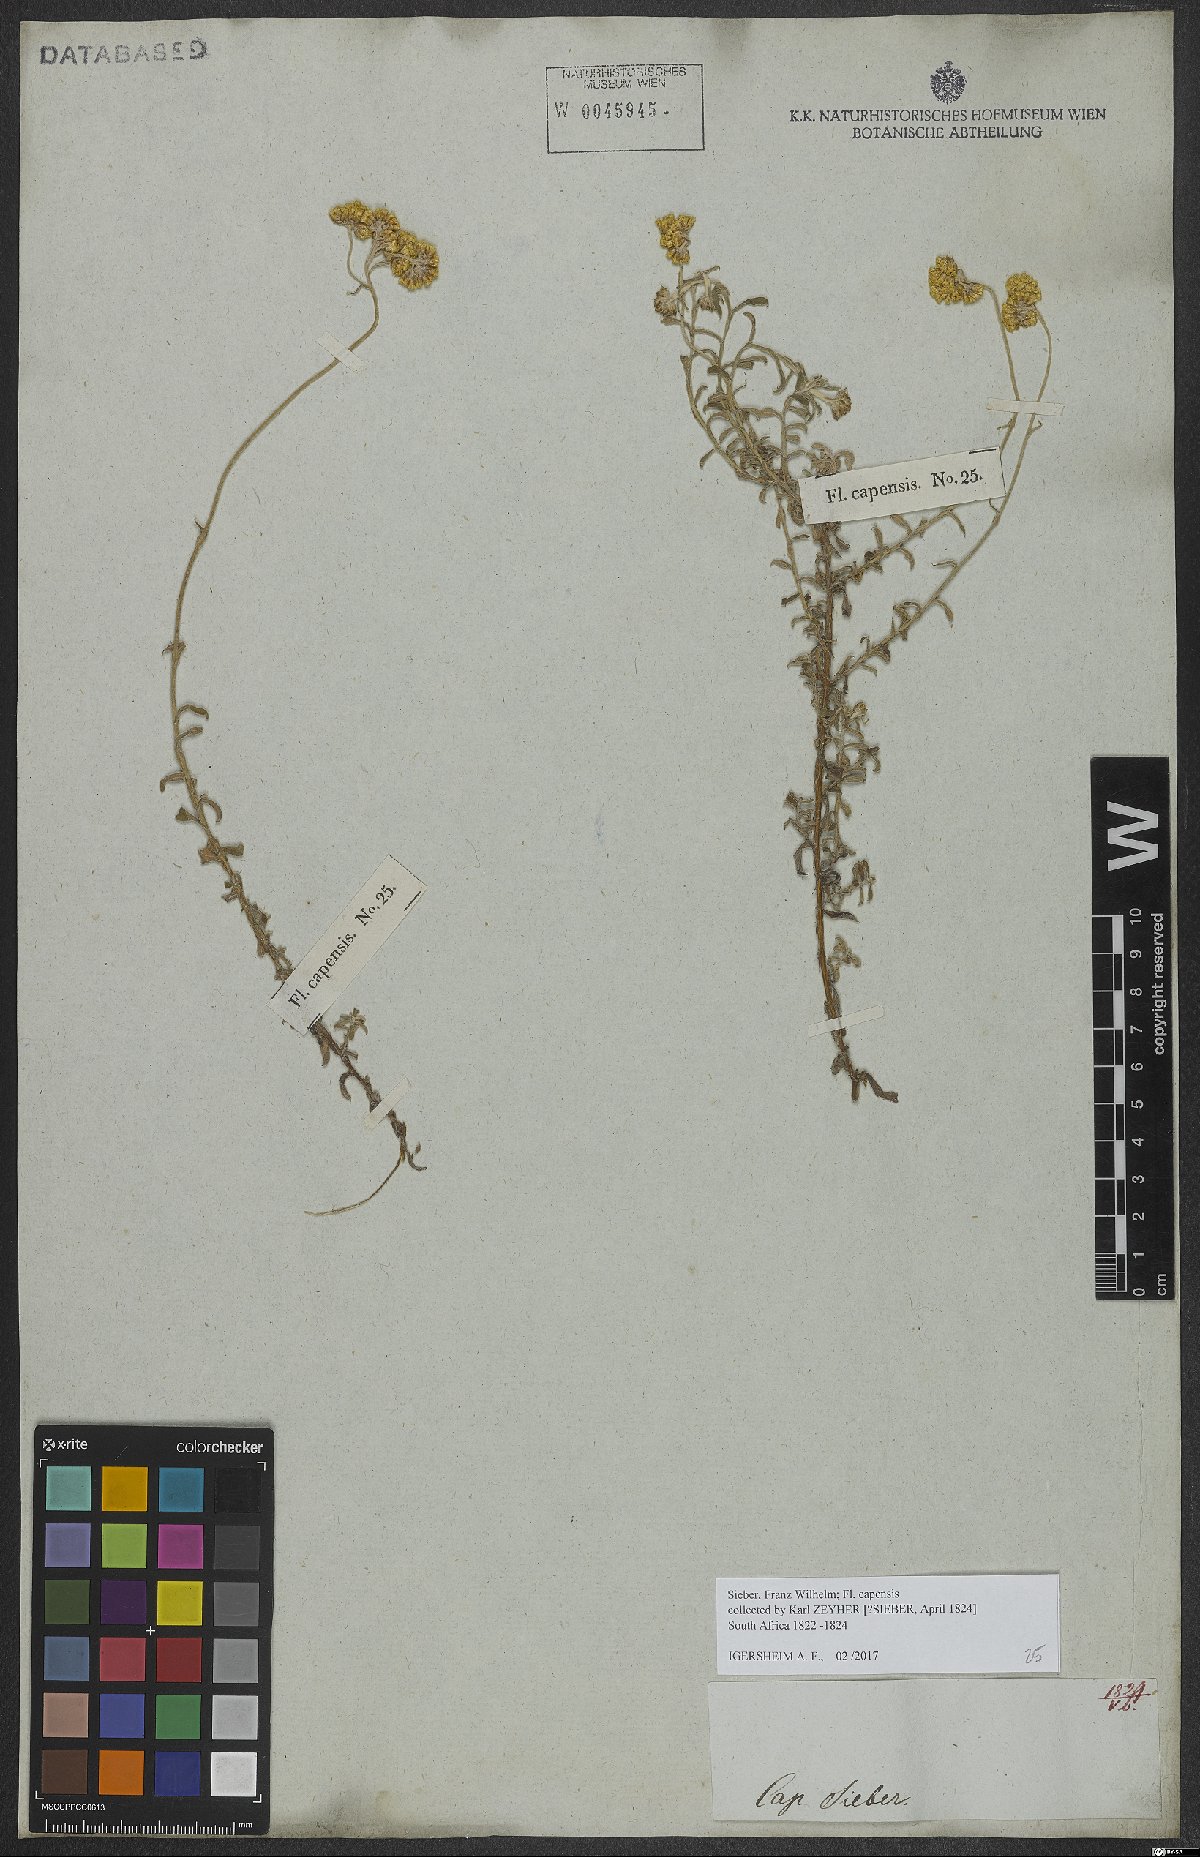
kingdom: Plantae
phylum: Tracheophyta
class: Magnoliopsida
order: Asterales
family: Asteraceae
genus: Helichrysum
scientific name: Helichrysum odoratissimum
